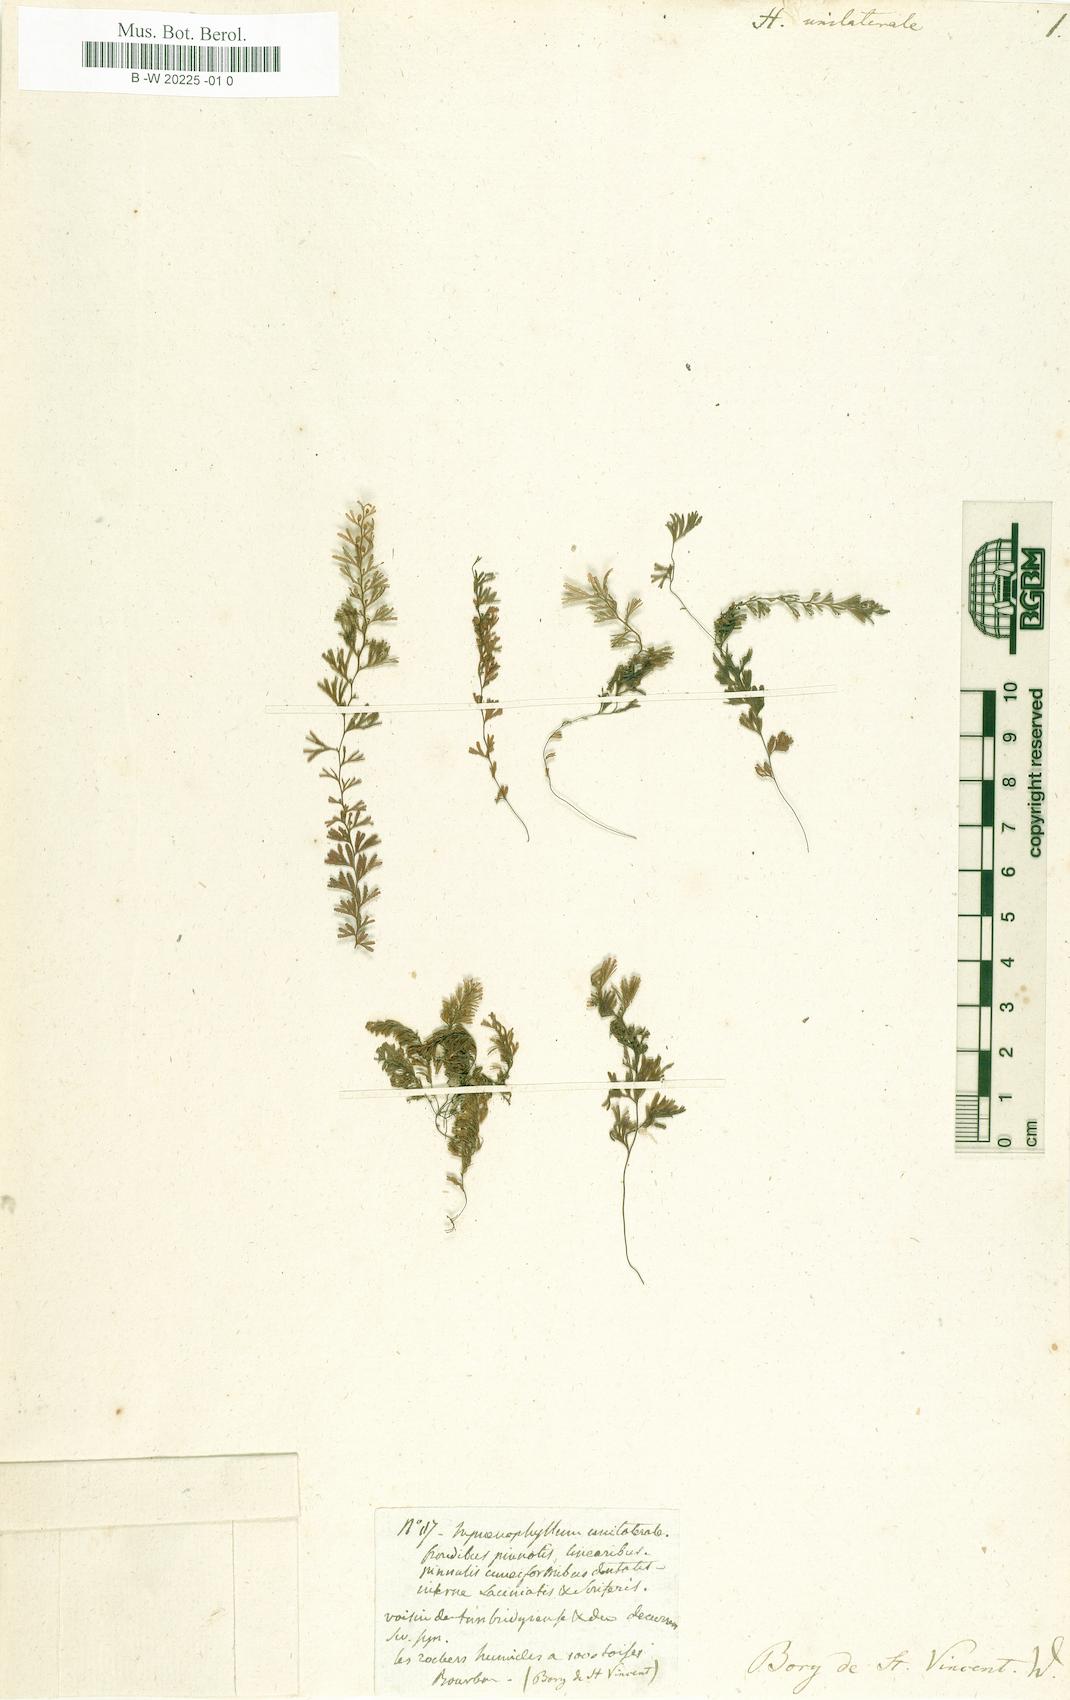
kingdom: Plantae
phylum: Tracheophyta
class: Polypodiopsida
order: Hymenophyllales
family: Hymenophyllaceae
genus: Hymenophyllum
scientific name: Hymenophyllum peltatum
